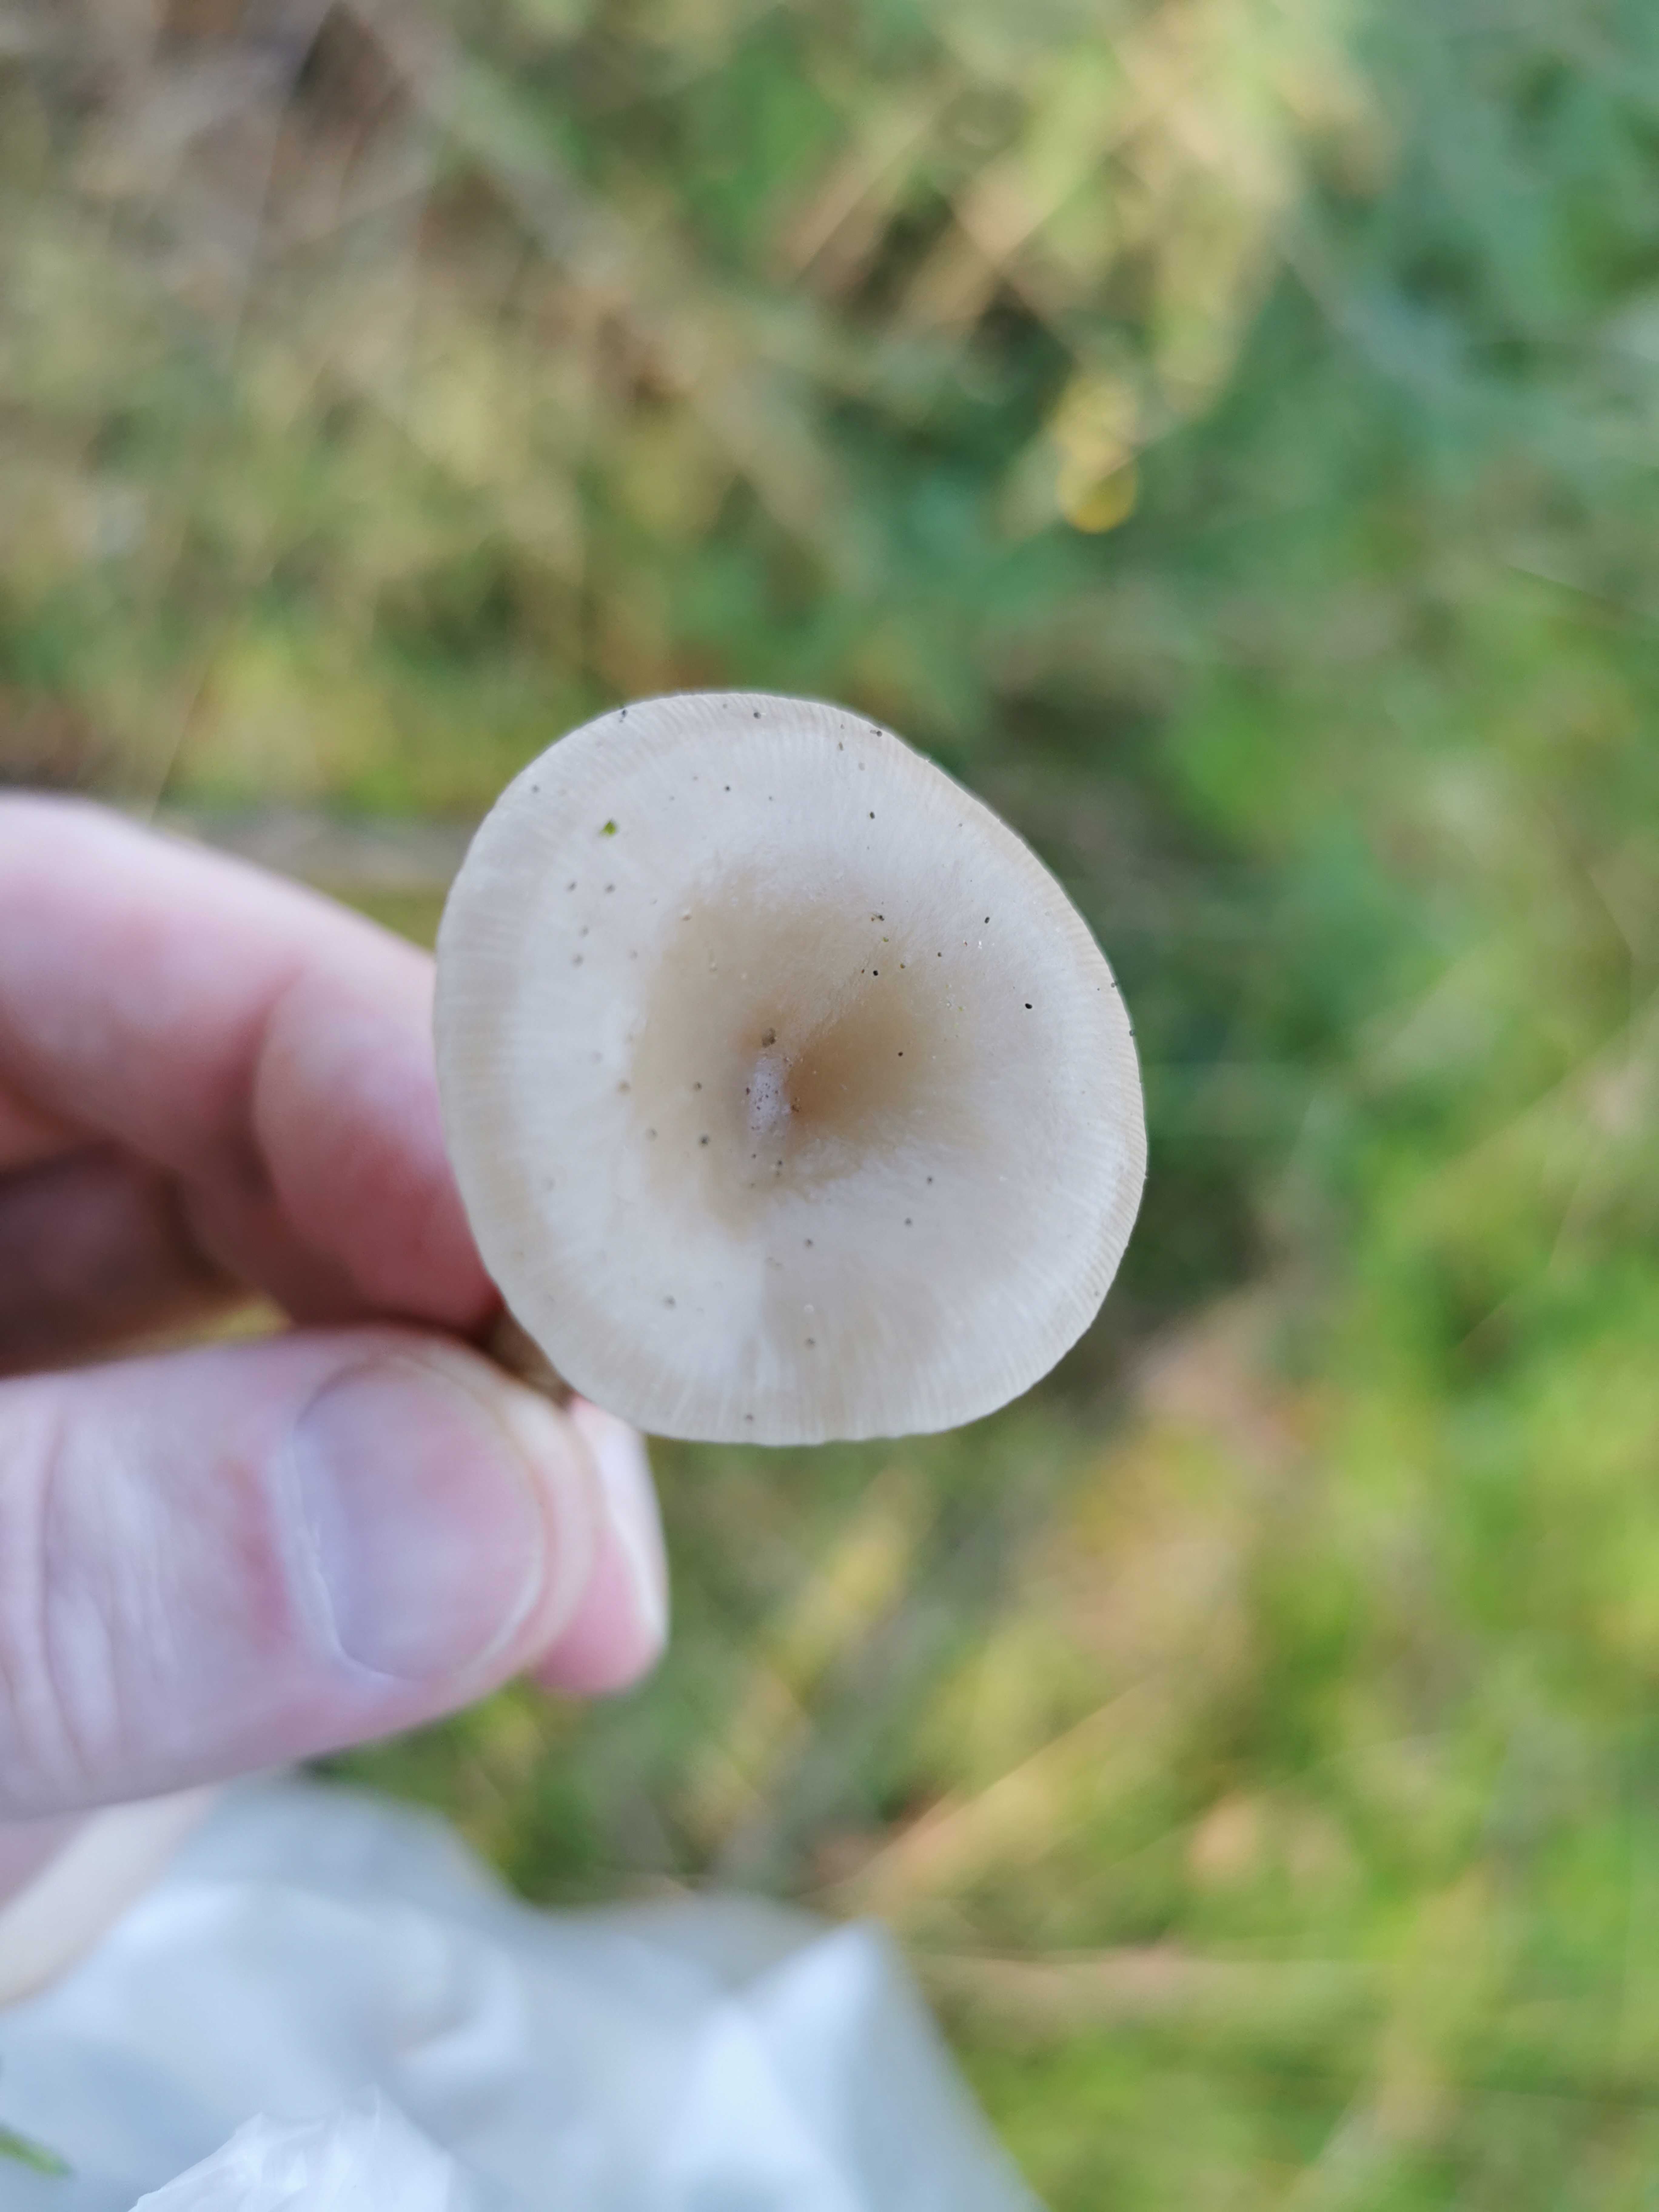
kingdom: Fungi
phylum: Basidiomycota
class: Agaricomycetes
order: Agaricales
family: Tricholomataceae
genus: Clitocybe
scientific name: Clitocybe
